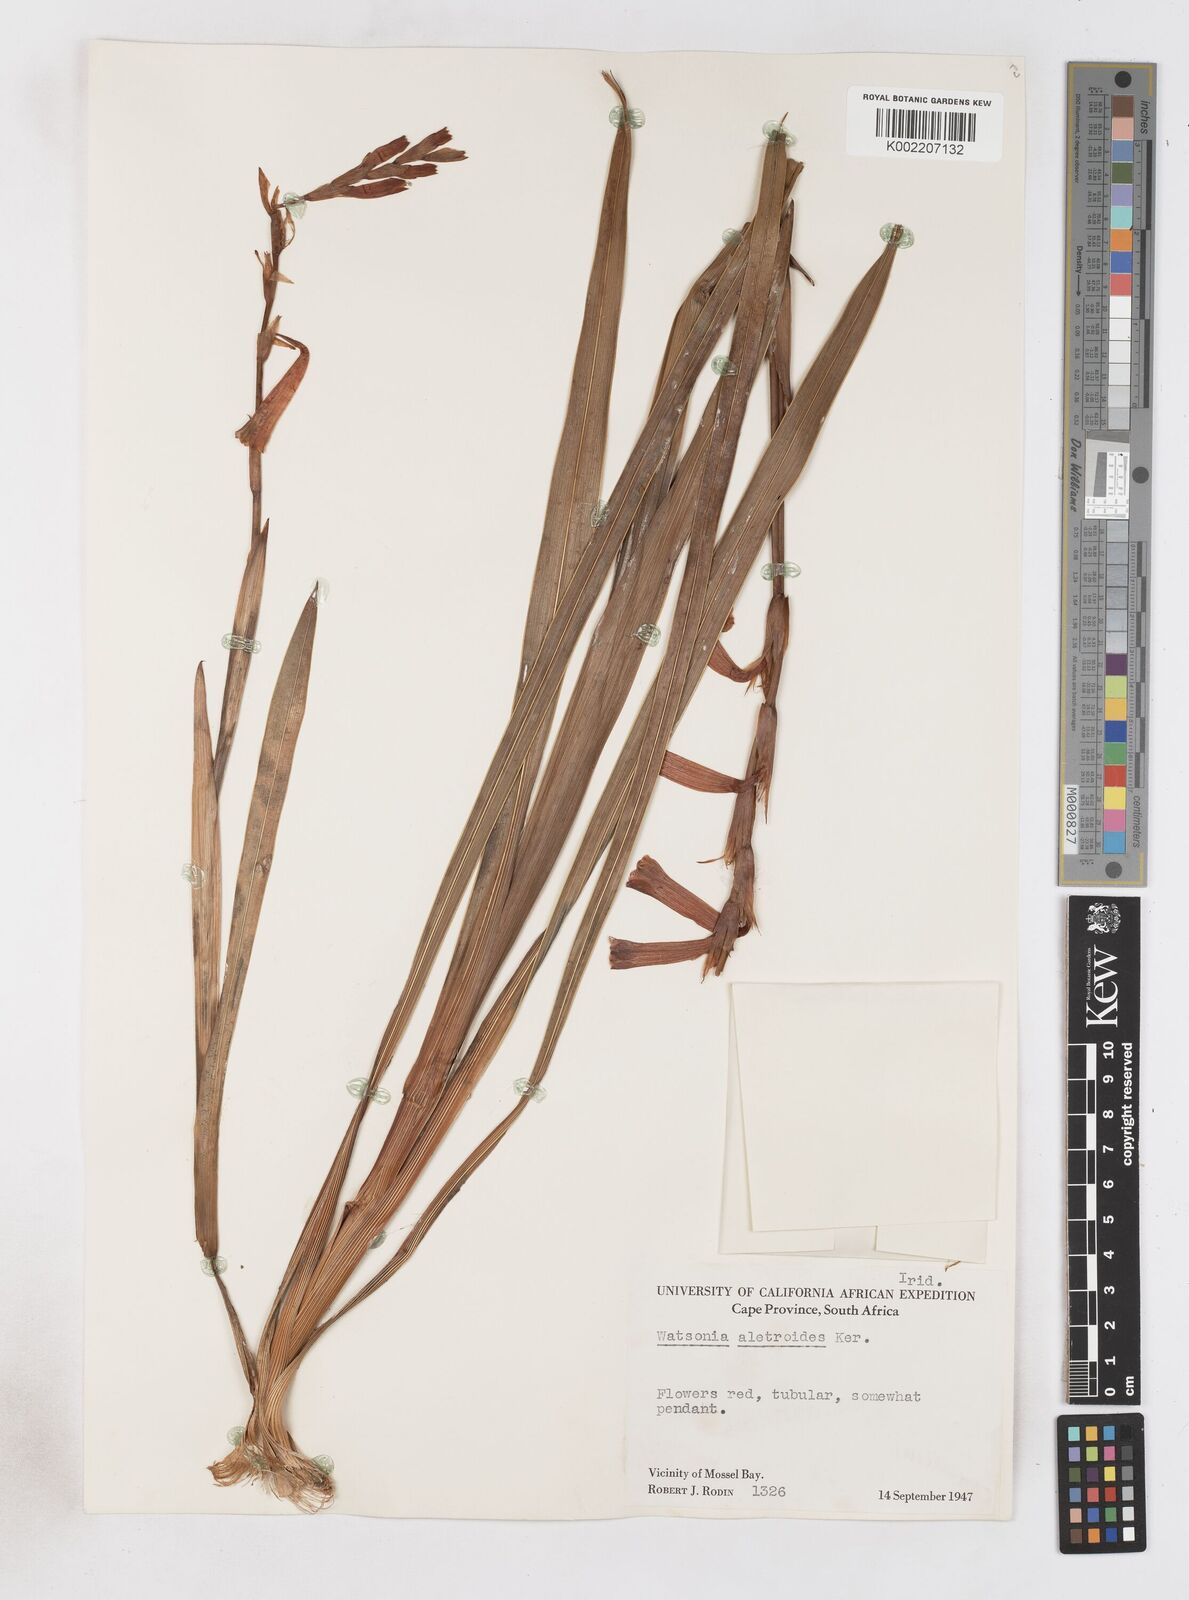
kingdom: Plantae
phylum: Tracheophyta
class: Liliopsida
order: Asparagales
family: Iridaceae
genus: Watsonia
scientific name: Watsonia aletroides
